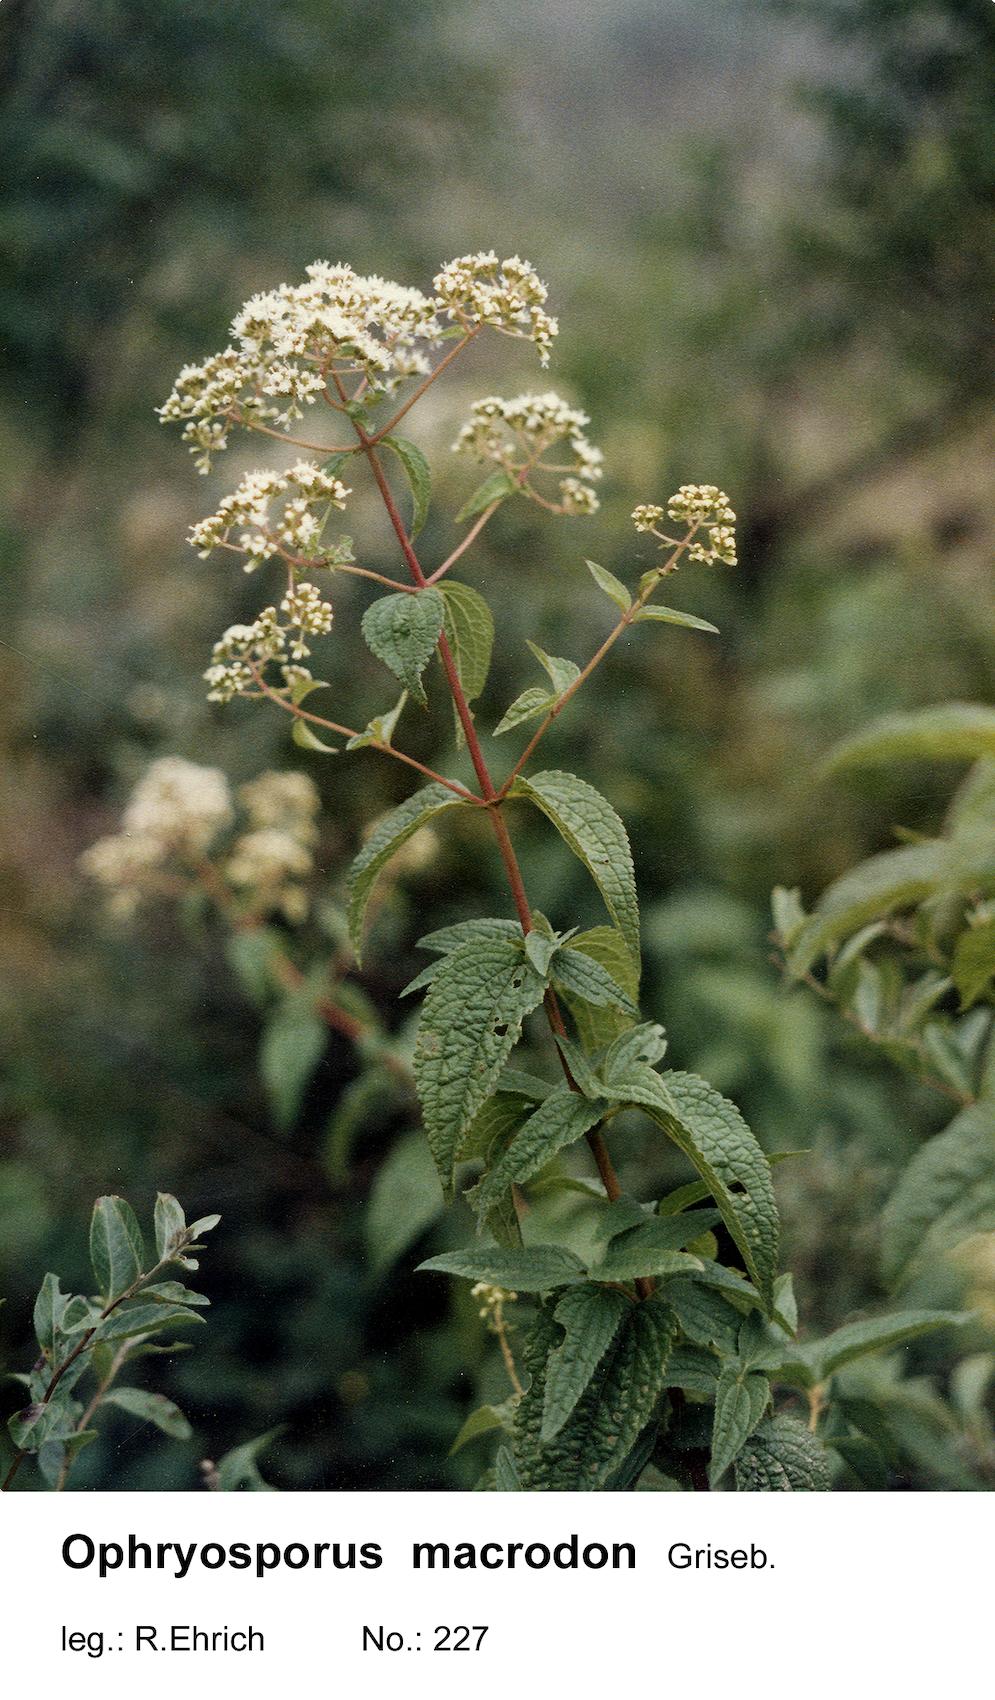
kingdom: Plantae
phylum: Tracheophyta
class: Magnoliopsida
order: Asterales
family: Asteraceae
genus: Ophryosporus
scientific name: Ophryosporus macrodon
